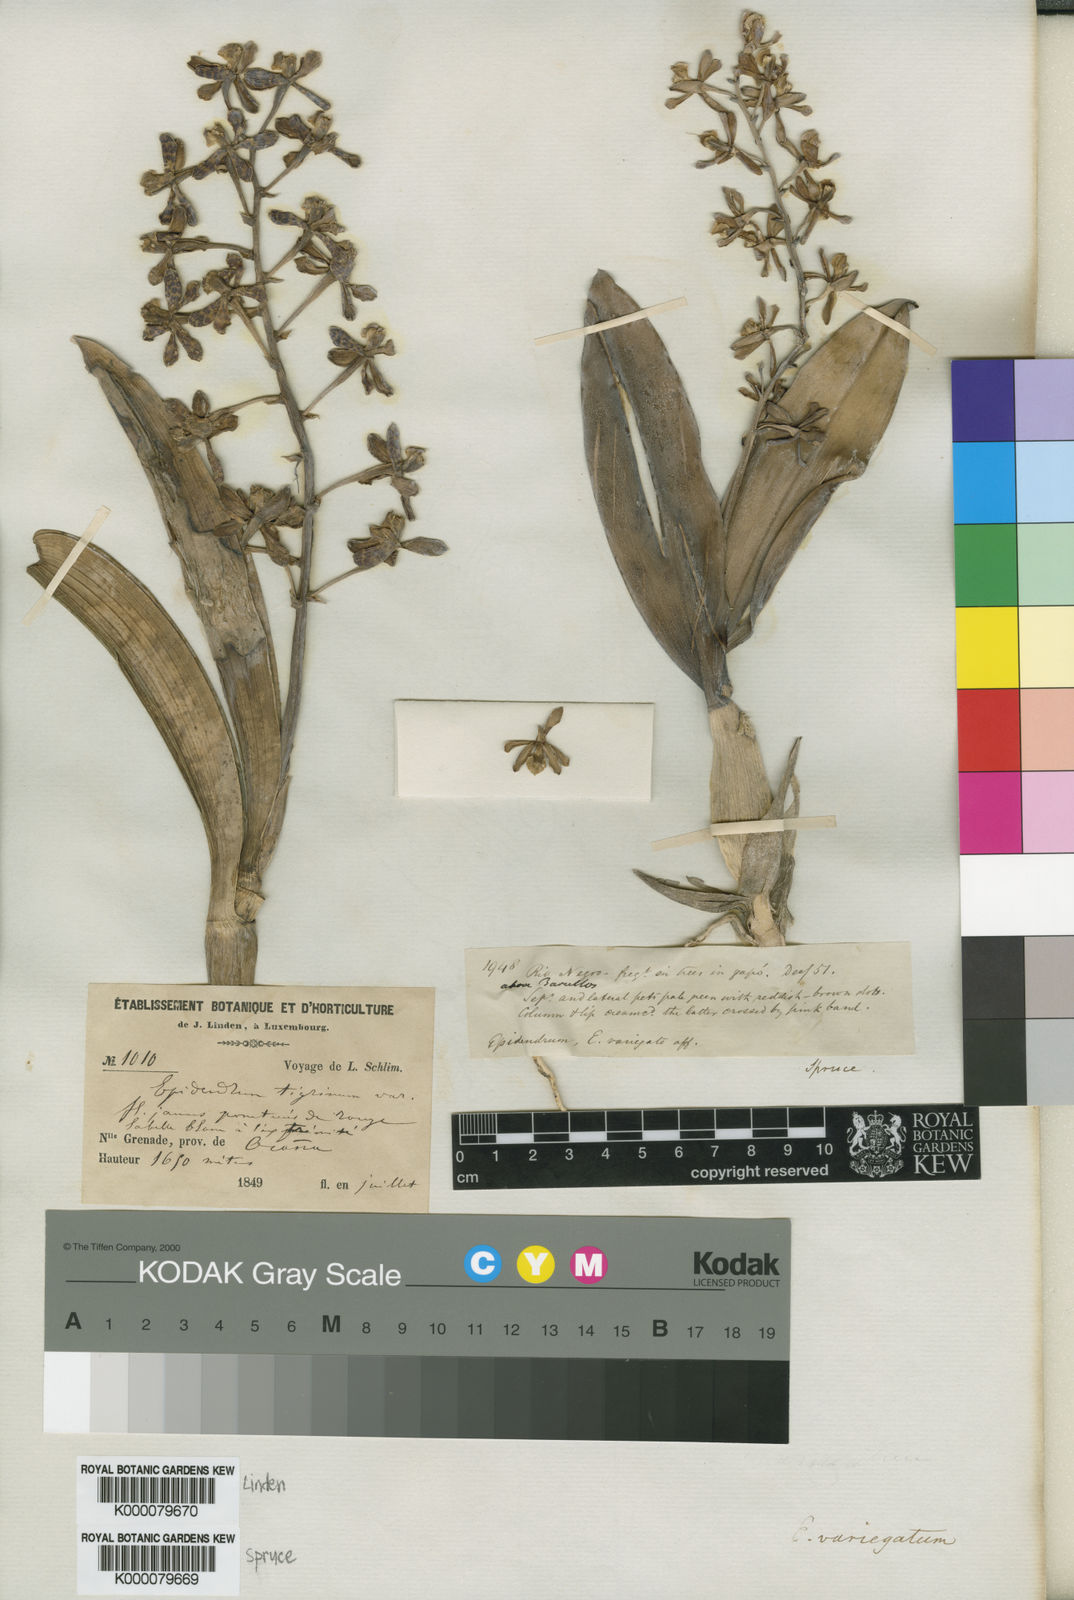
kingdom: Plantae
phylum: Tracheophyta
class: Liliopsida
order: Asparagales
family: Orchidaceae
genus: Prosthechea
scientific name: Prosthechea pachysepala
